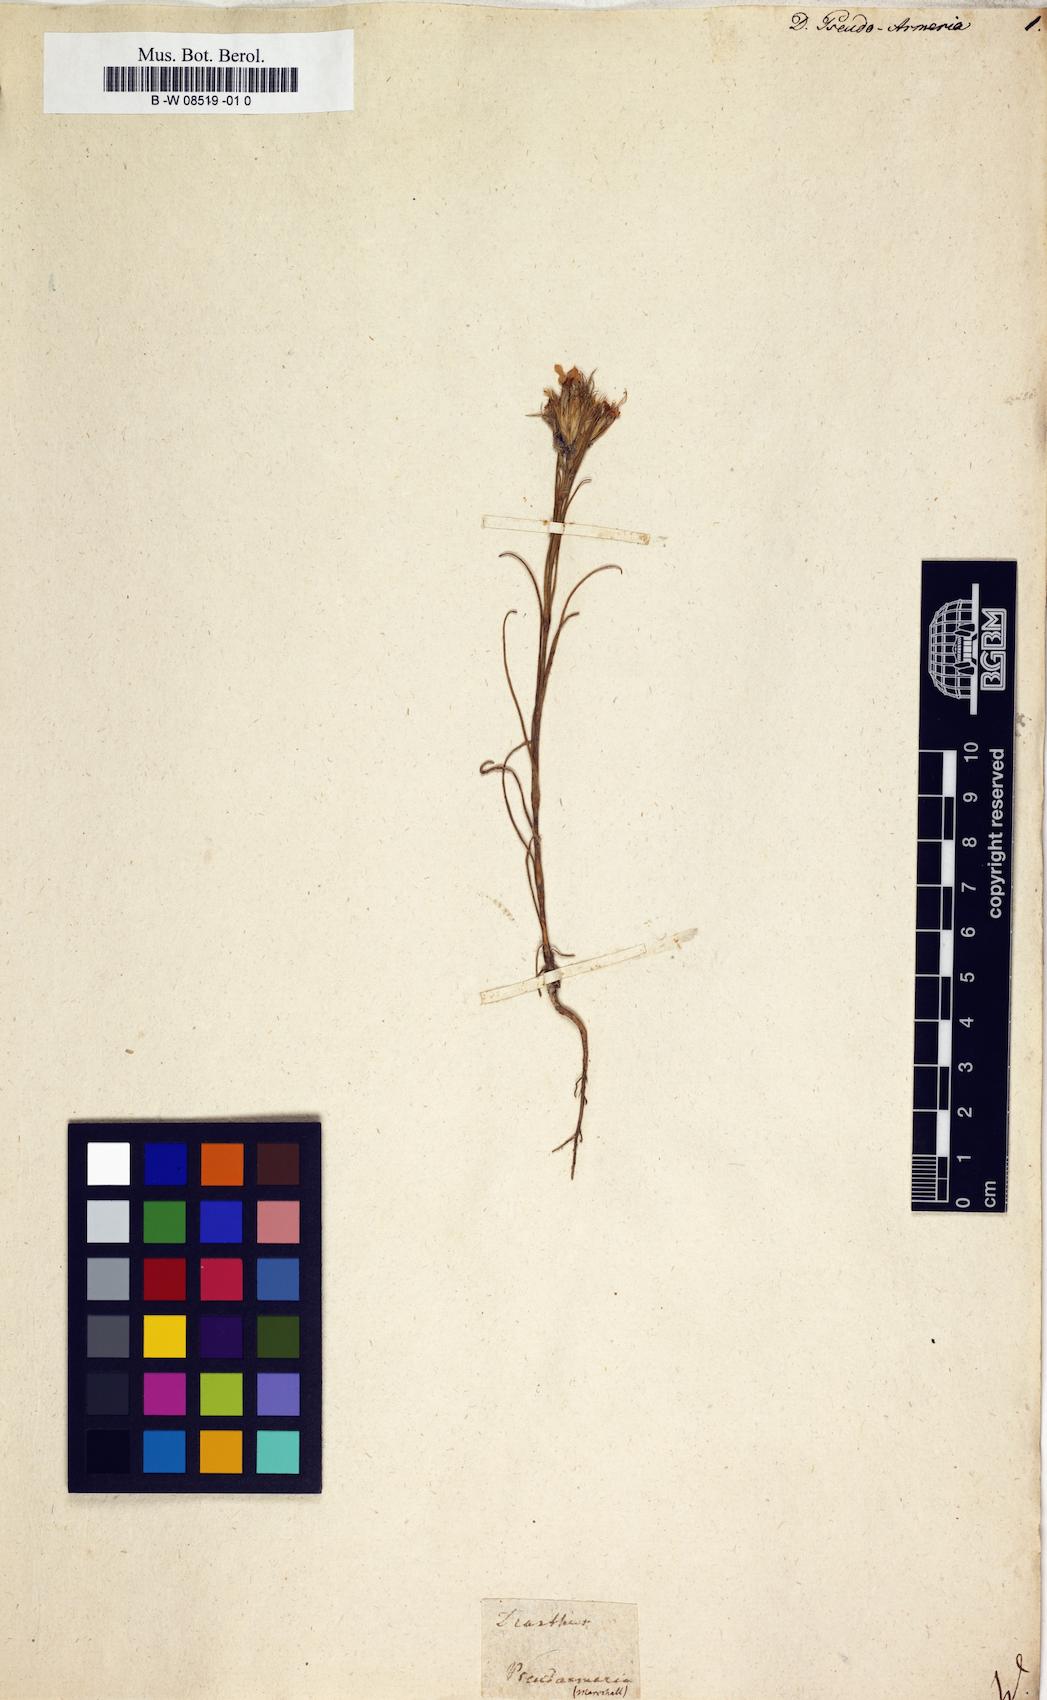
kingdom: Plantae
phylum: Tracheophyta
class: Magnoliopsida
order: Caryophyllales
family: Caryophyllaceae
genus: Dianthus
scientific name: Dianthus pseudoarmeria
